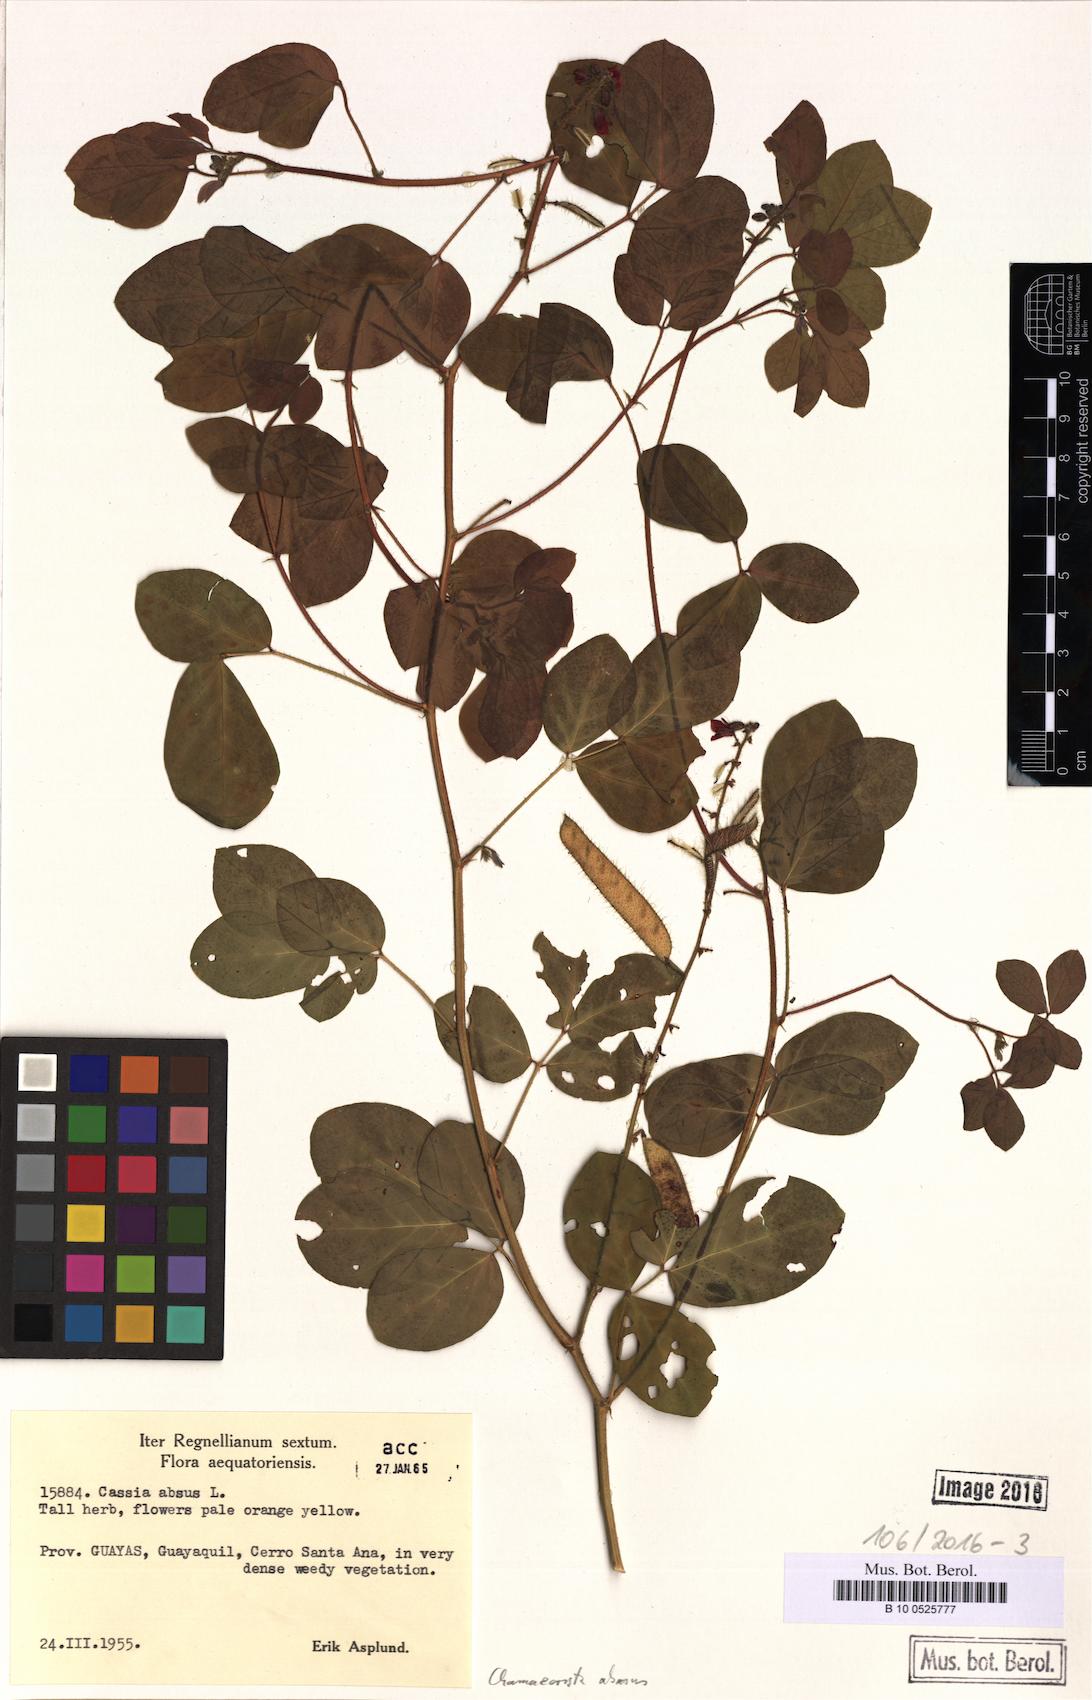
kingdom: Plantae
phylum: Tracheophyta
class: Magnoliopsida
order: Fabales
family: Fabaceae
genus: Chamaecrista
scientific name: Chamaecrista absus
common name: Tropical sensitive pea
